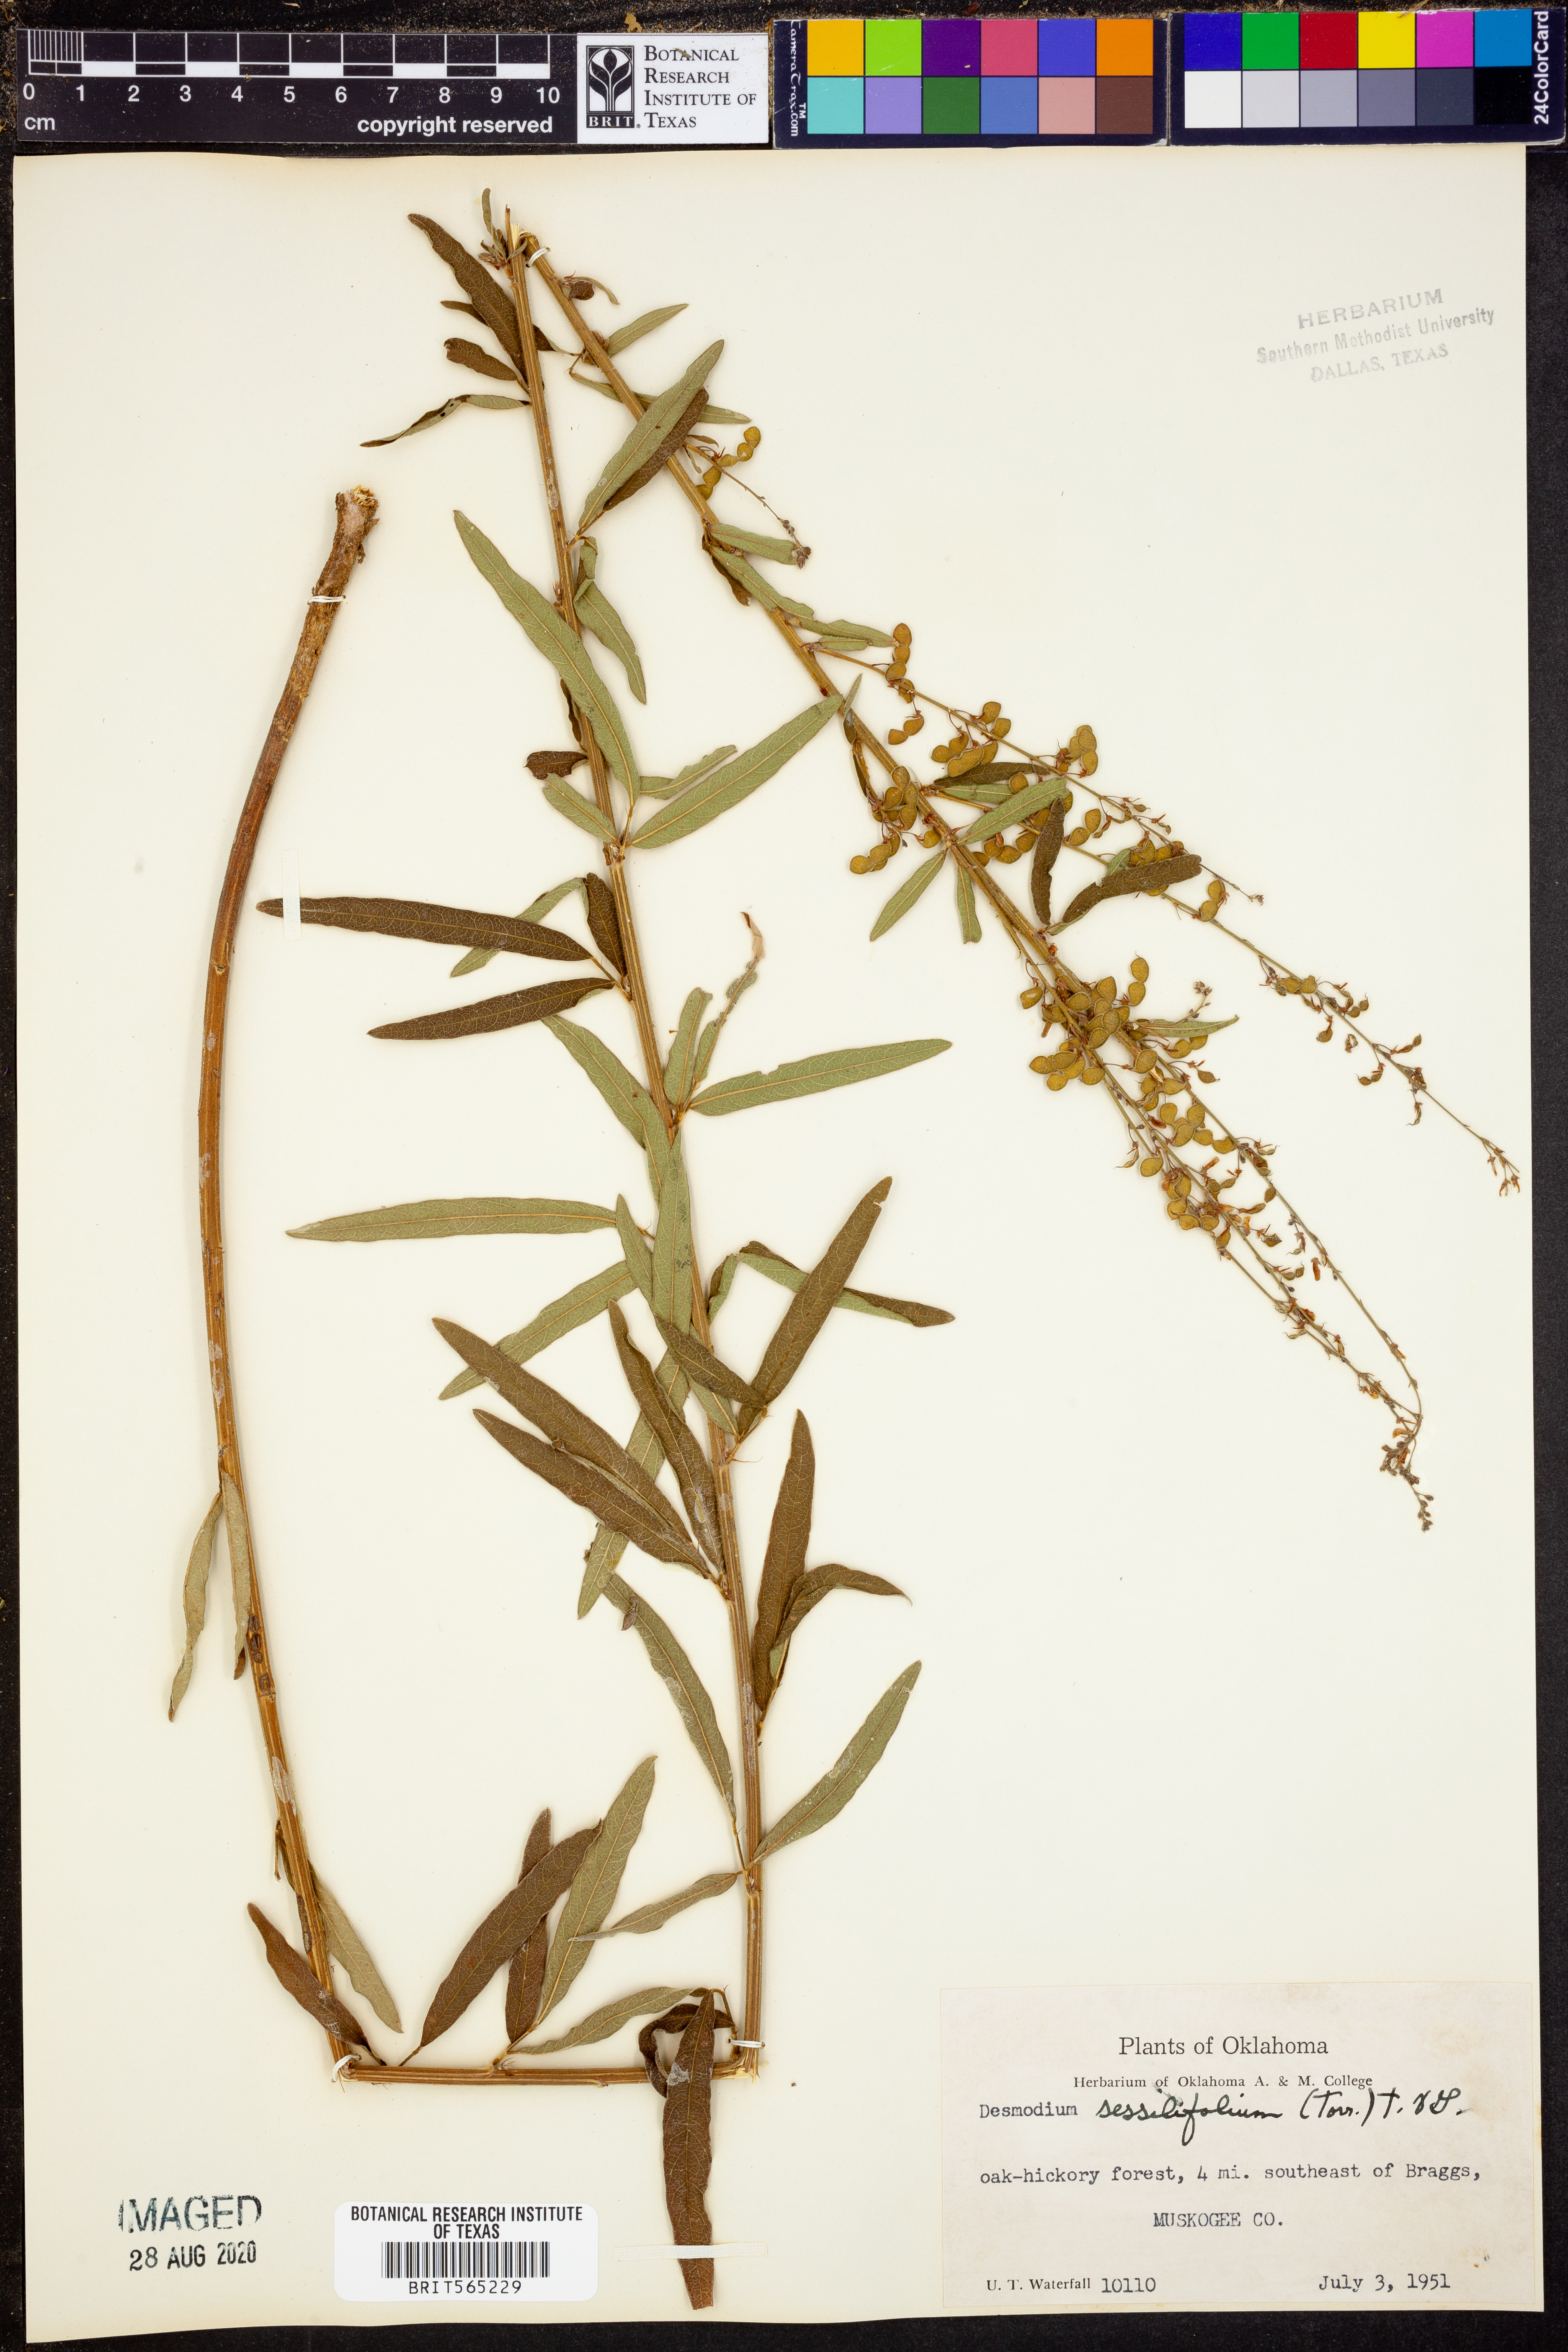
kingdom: Plantae
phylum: Tracheophyta
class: Magnoliopsida
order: Fabales
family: Fabaceae
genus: Desmodium
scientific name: Desmodium sessilifolium
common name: Sessile tick-clover
